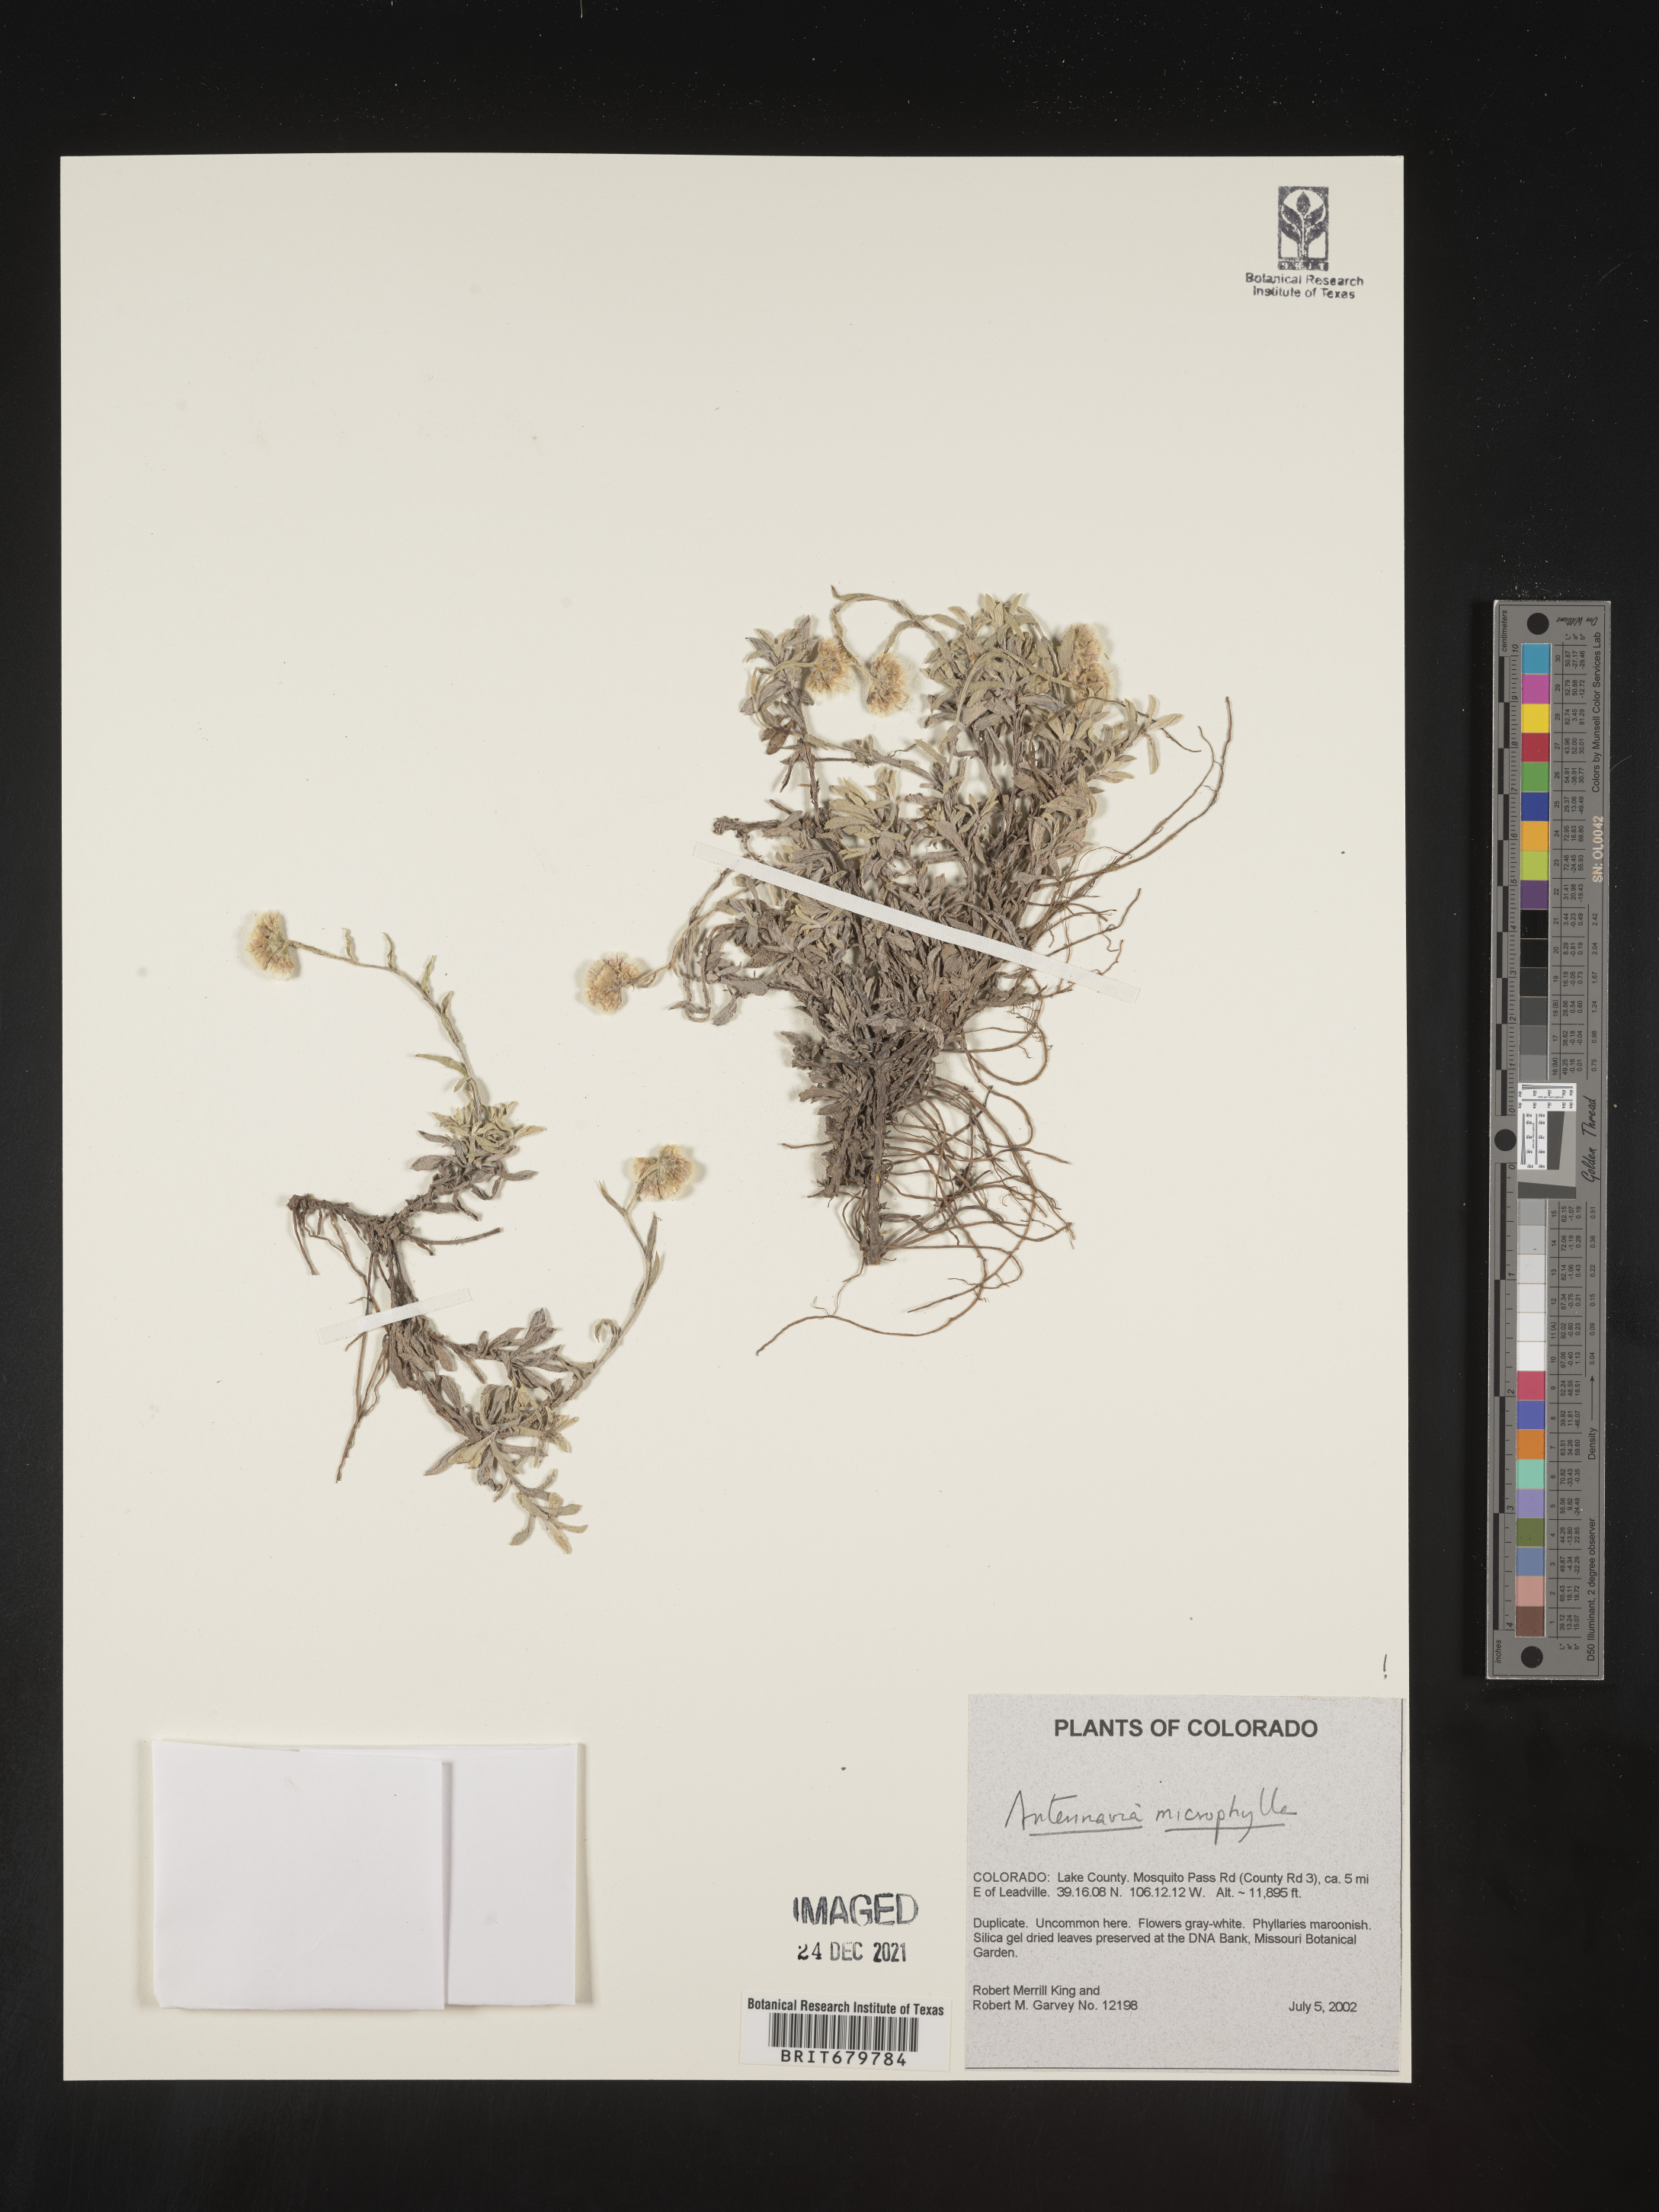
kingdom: Plantae
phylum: Tracheophyta
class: Magnoliopsida
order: Asterales
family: Asteraceae
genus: Antennaria
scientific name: Antennaria microphylla
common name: Littleleaf pussytoes
